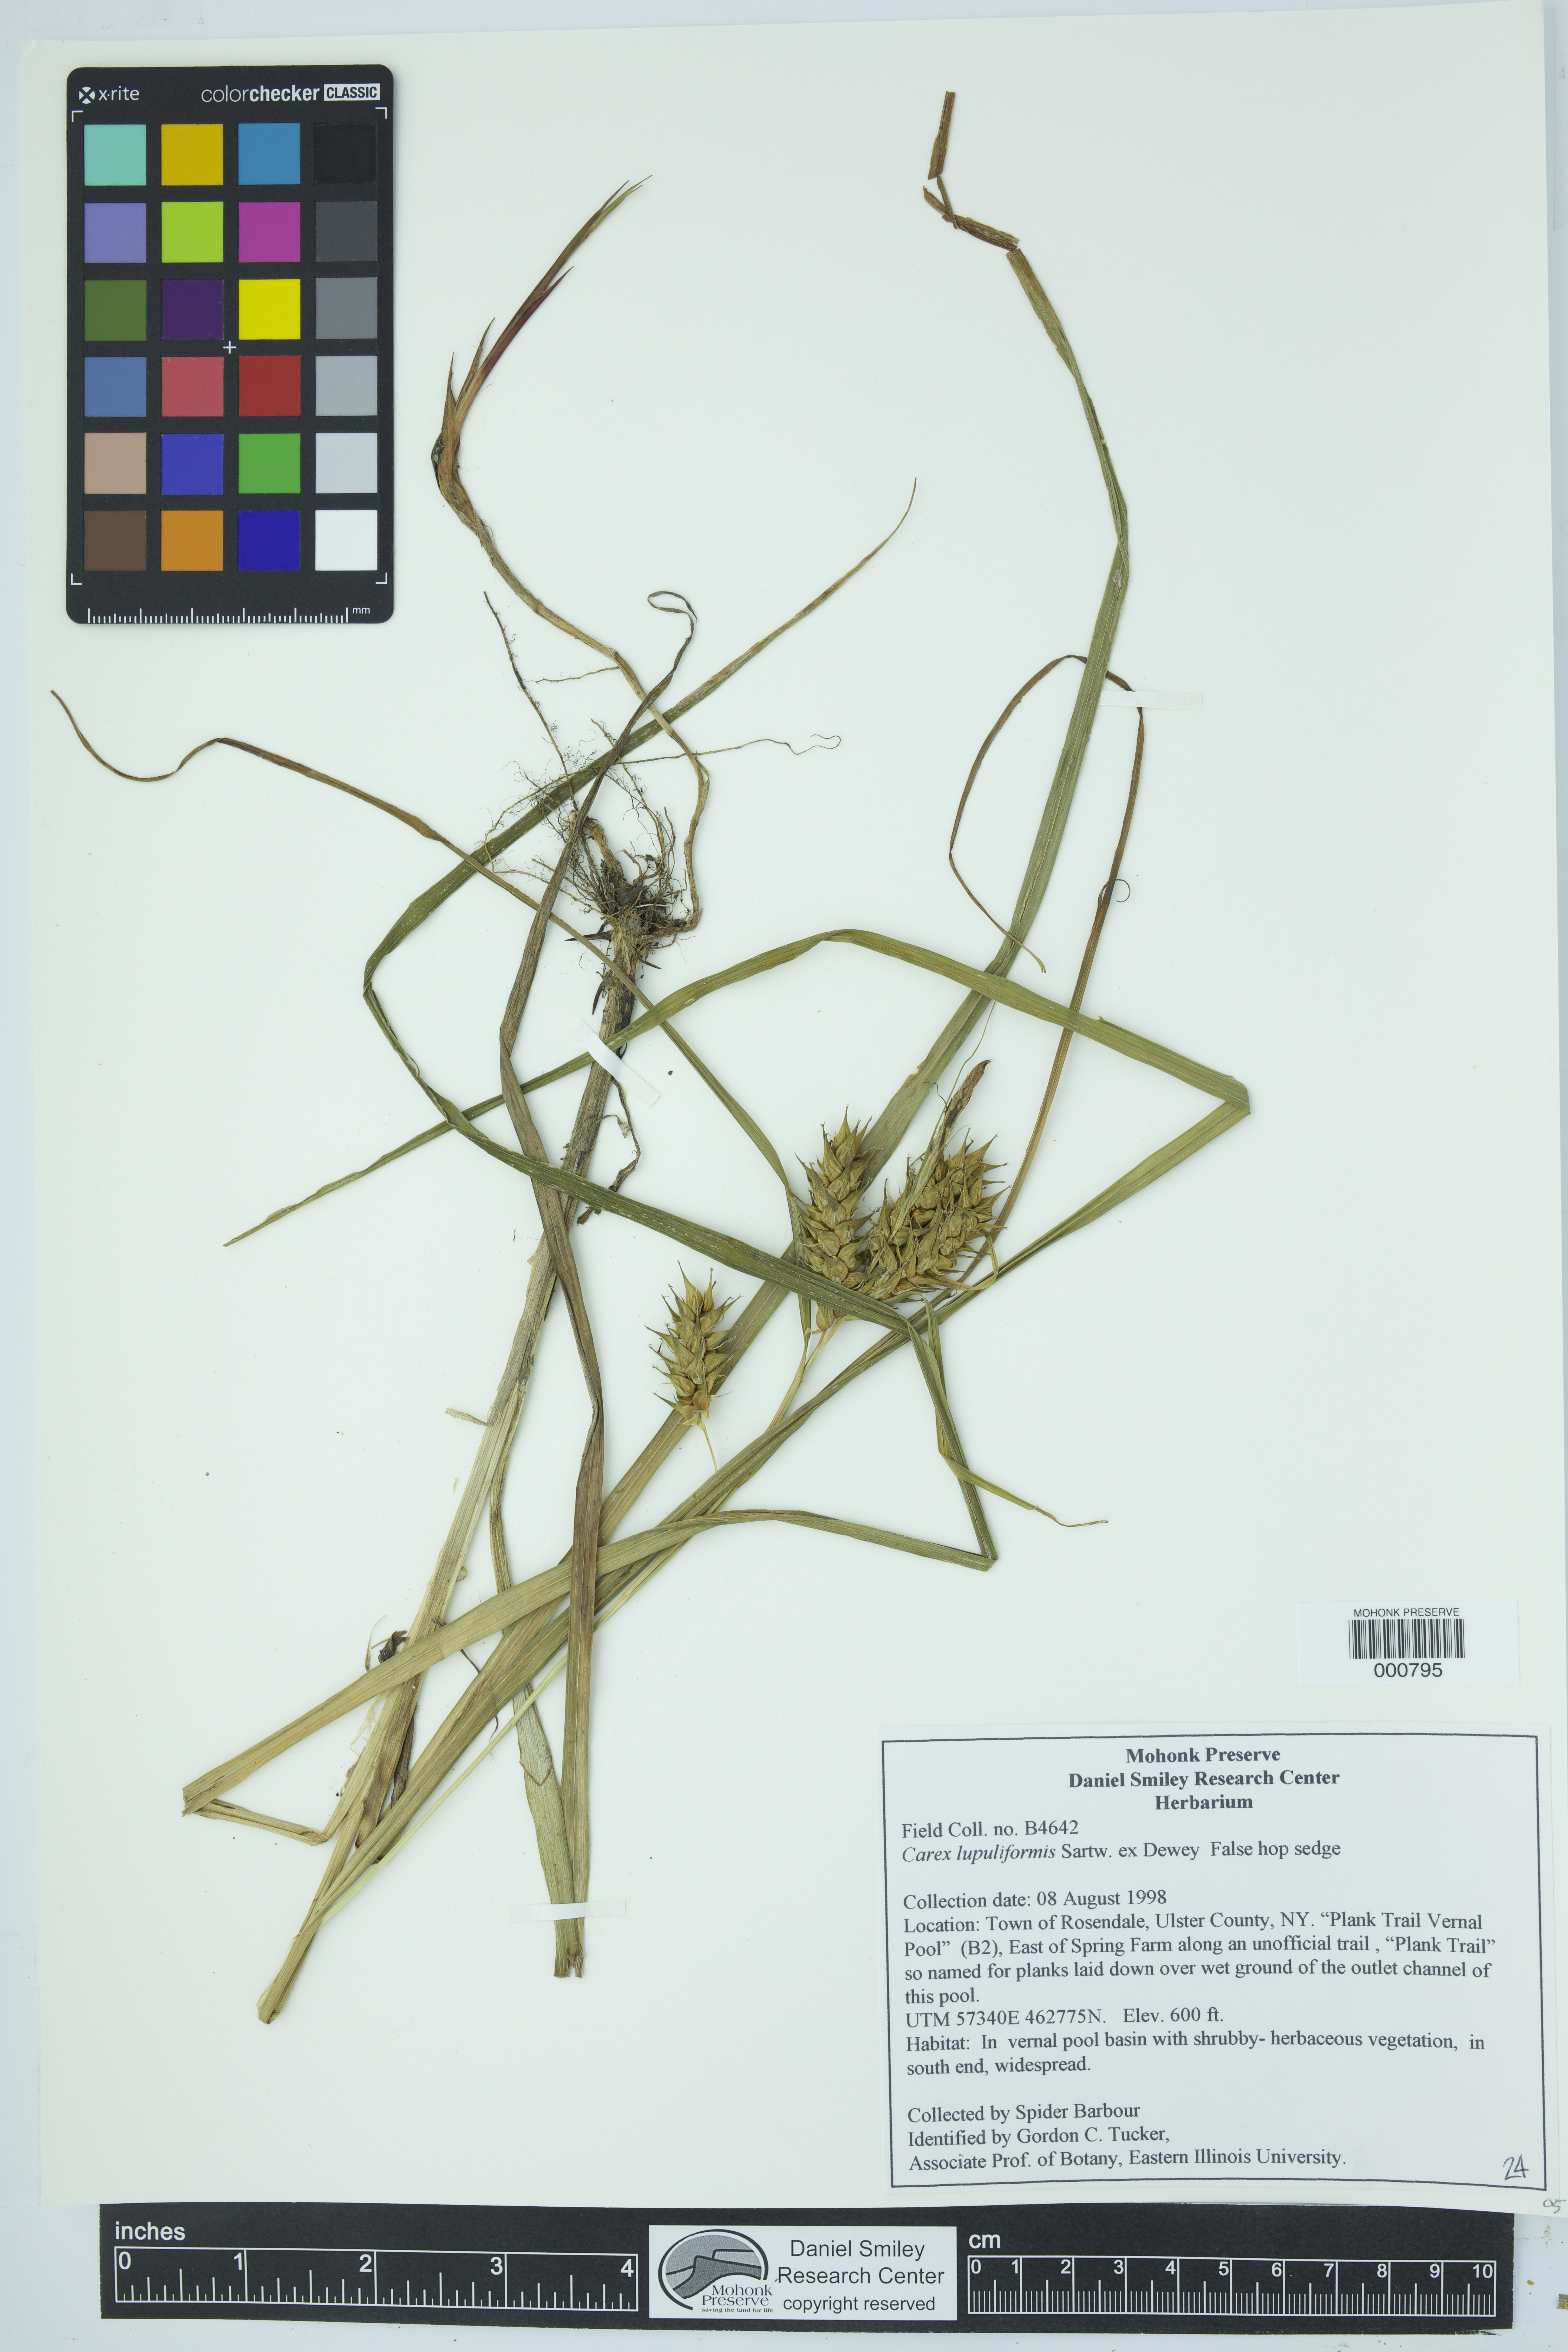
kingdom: Plantae
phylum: Tracheophyta
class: Liliopsida
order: Poales
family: Cyperaceae
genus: Carex
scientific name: Carex lupuliformis
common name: False hop sedge
